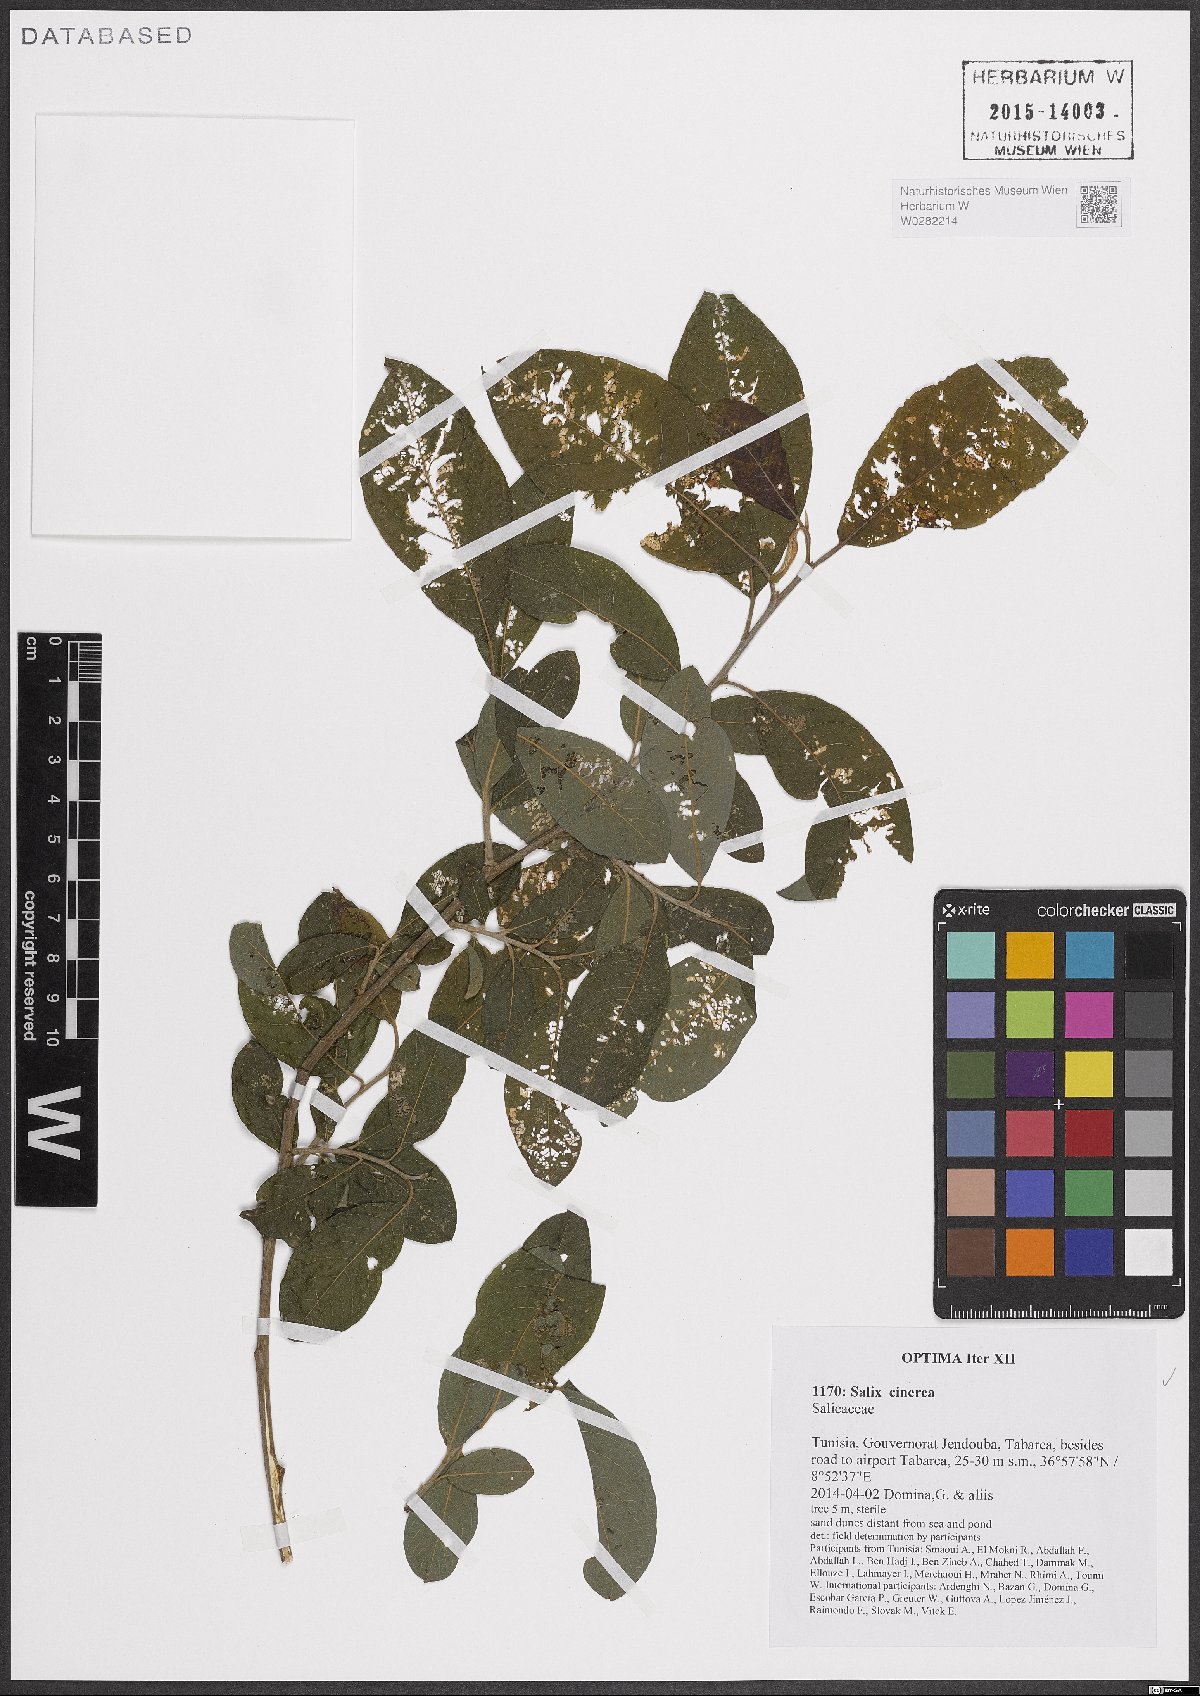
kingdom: Plantae
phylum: Tracheophyta
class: Magnoliopsida
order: Malpighiales
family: Salicaceae
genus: Salix
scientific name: Salix cinerea
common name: Common sallow
